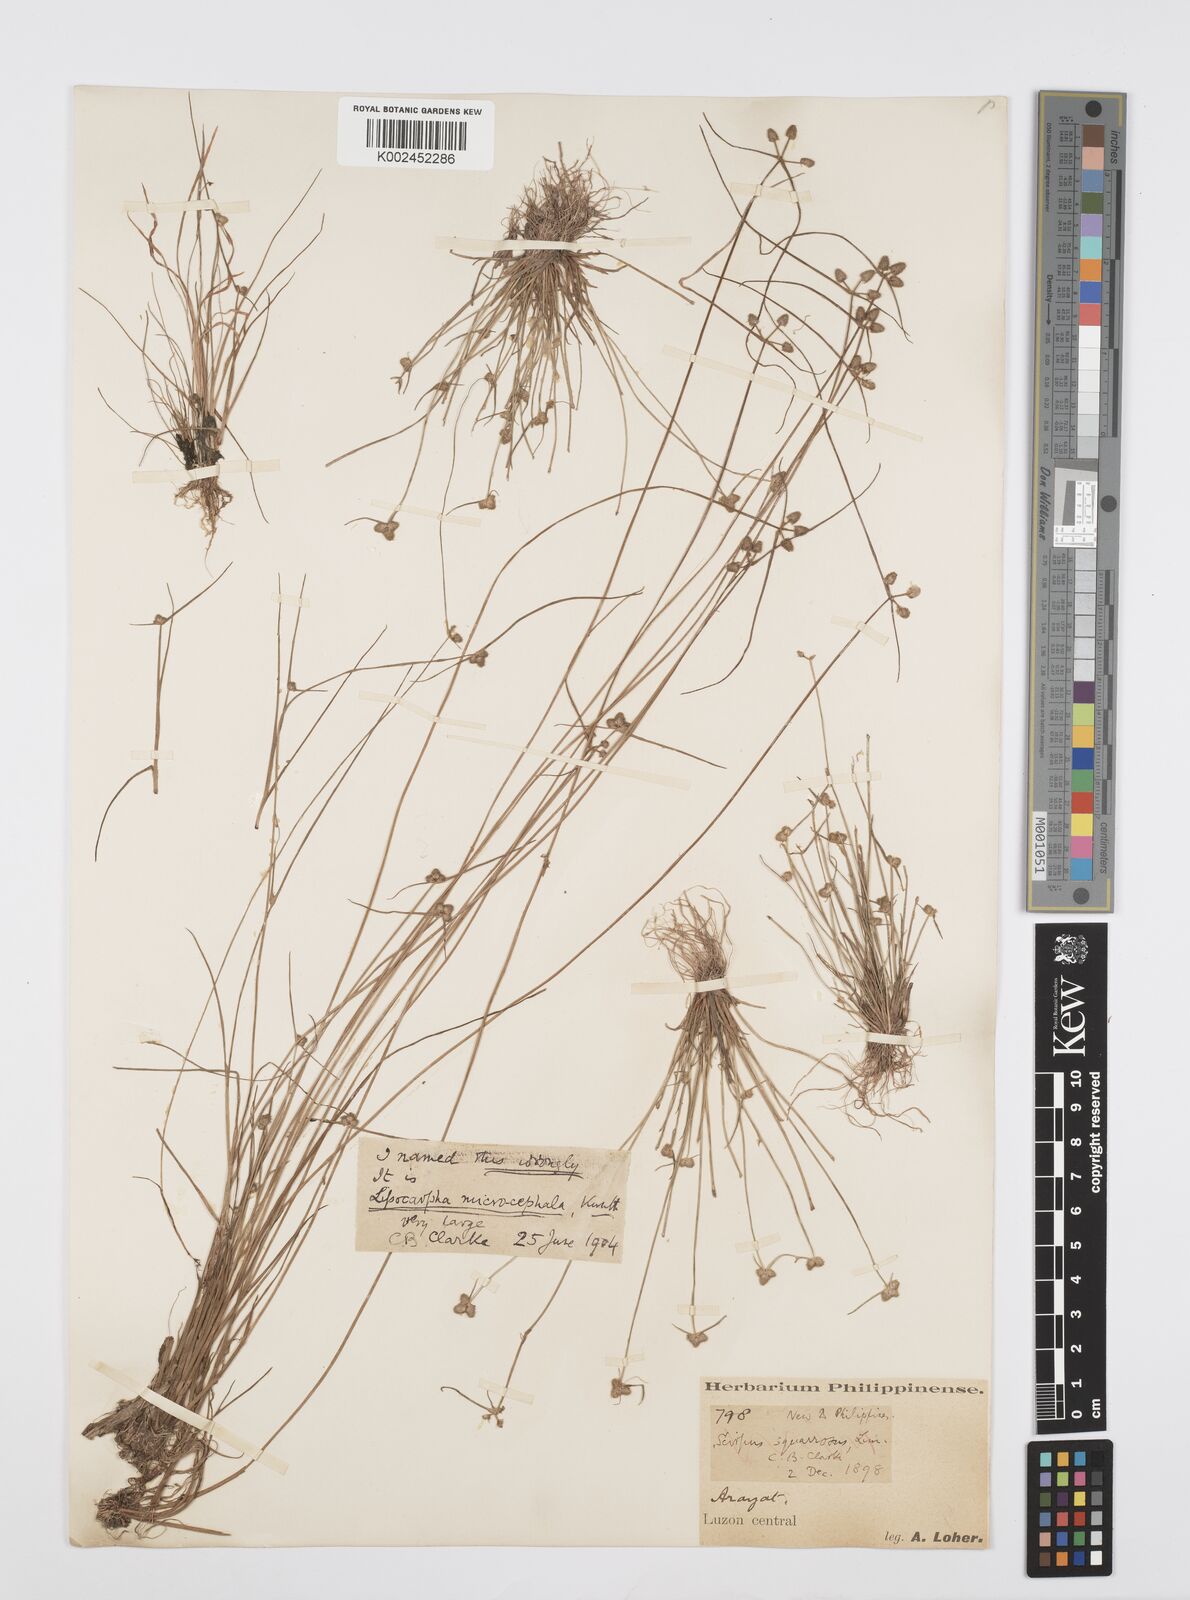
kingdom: Plantae
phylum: Tracheophyta
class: Liliopsida
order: Poales
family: Cyperaceae
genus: Cyperus
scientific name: Cyperus microcephalus
